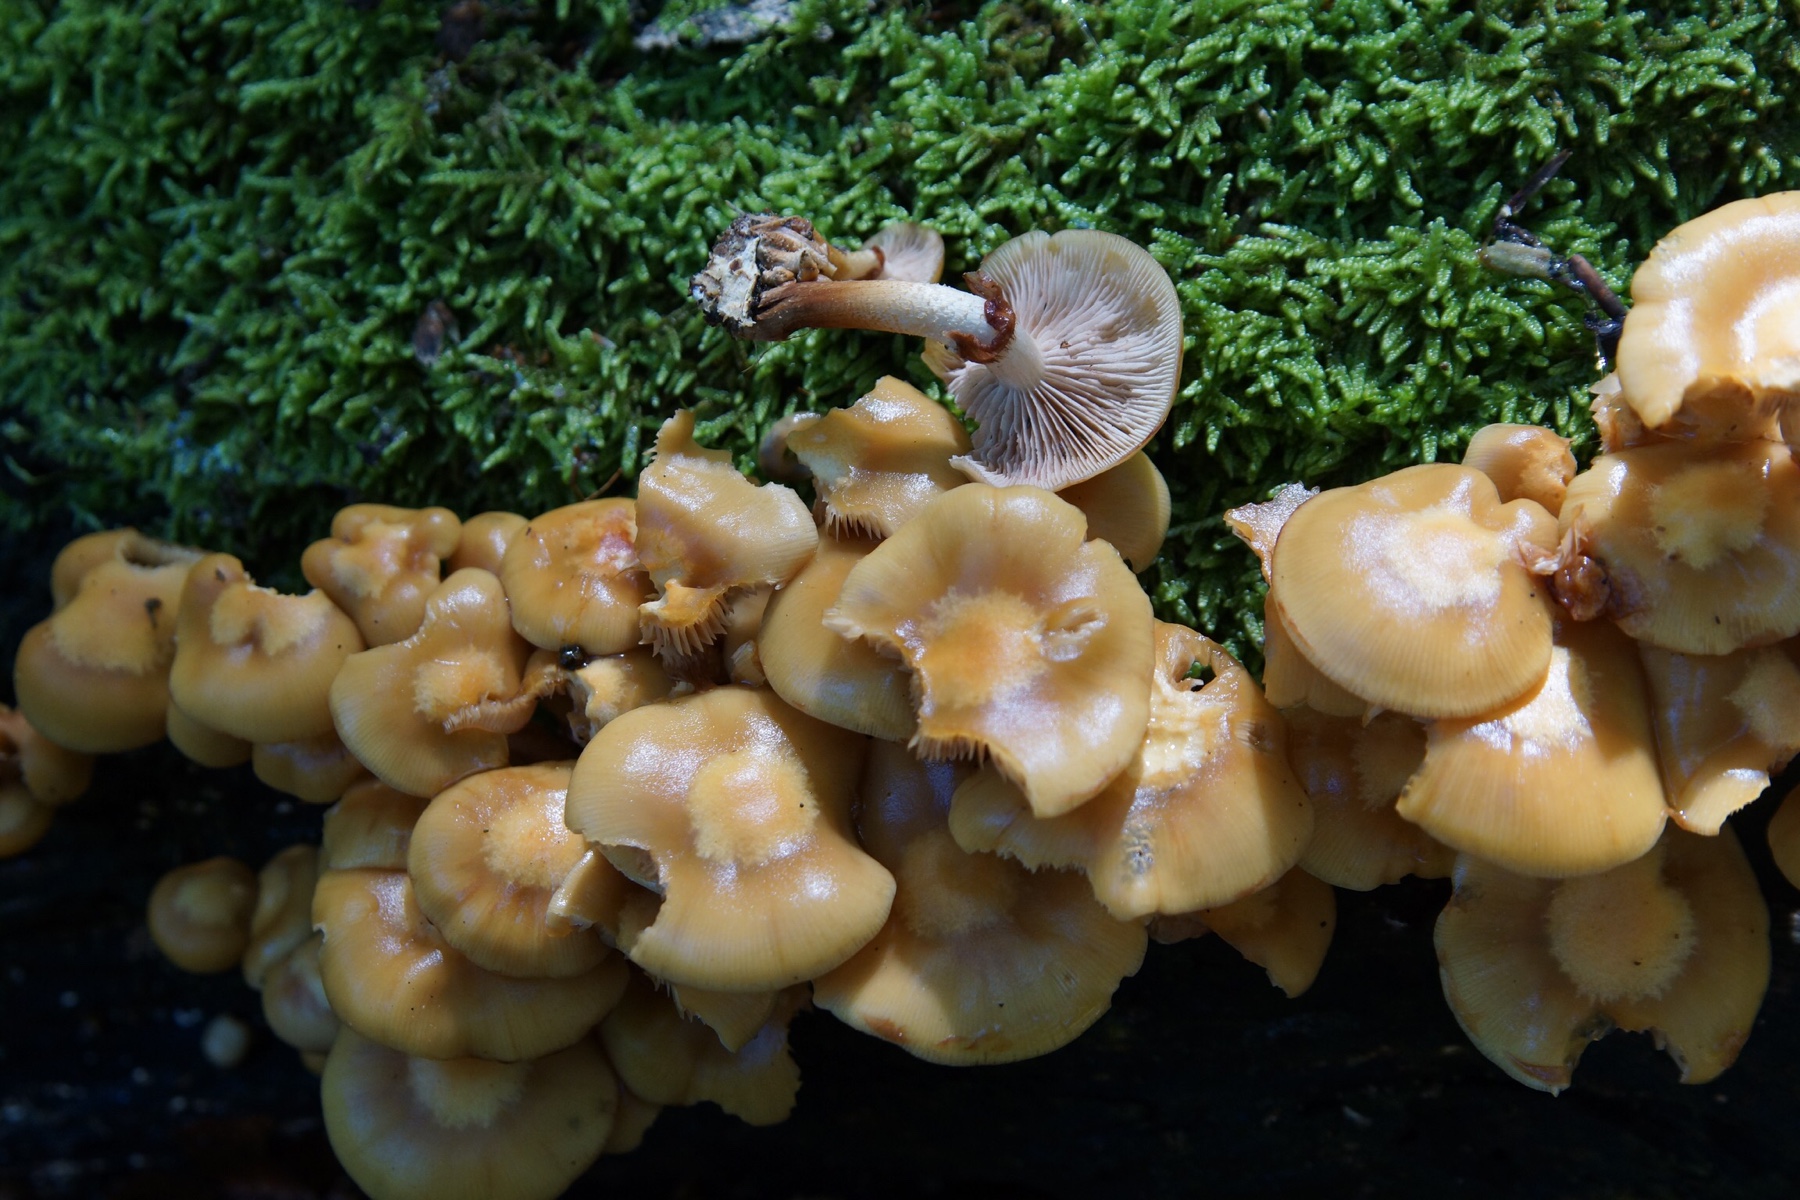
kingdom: Fungi
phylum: Basidiomycota
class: Agaricomycetes
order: Agaricales
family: Strophariaceae
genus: Kuehneromyces
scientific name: Kuehneromyces mutabilis
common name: foranderlig skælhat
